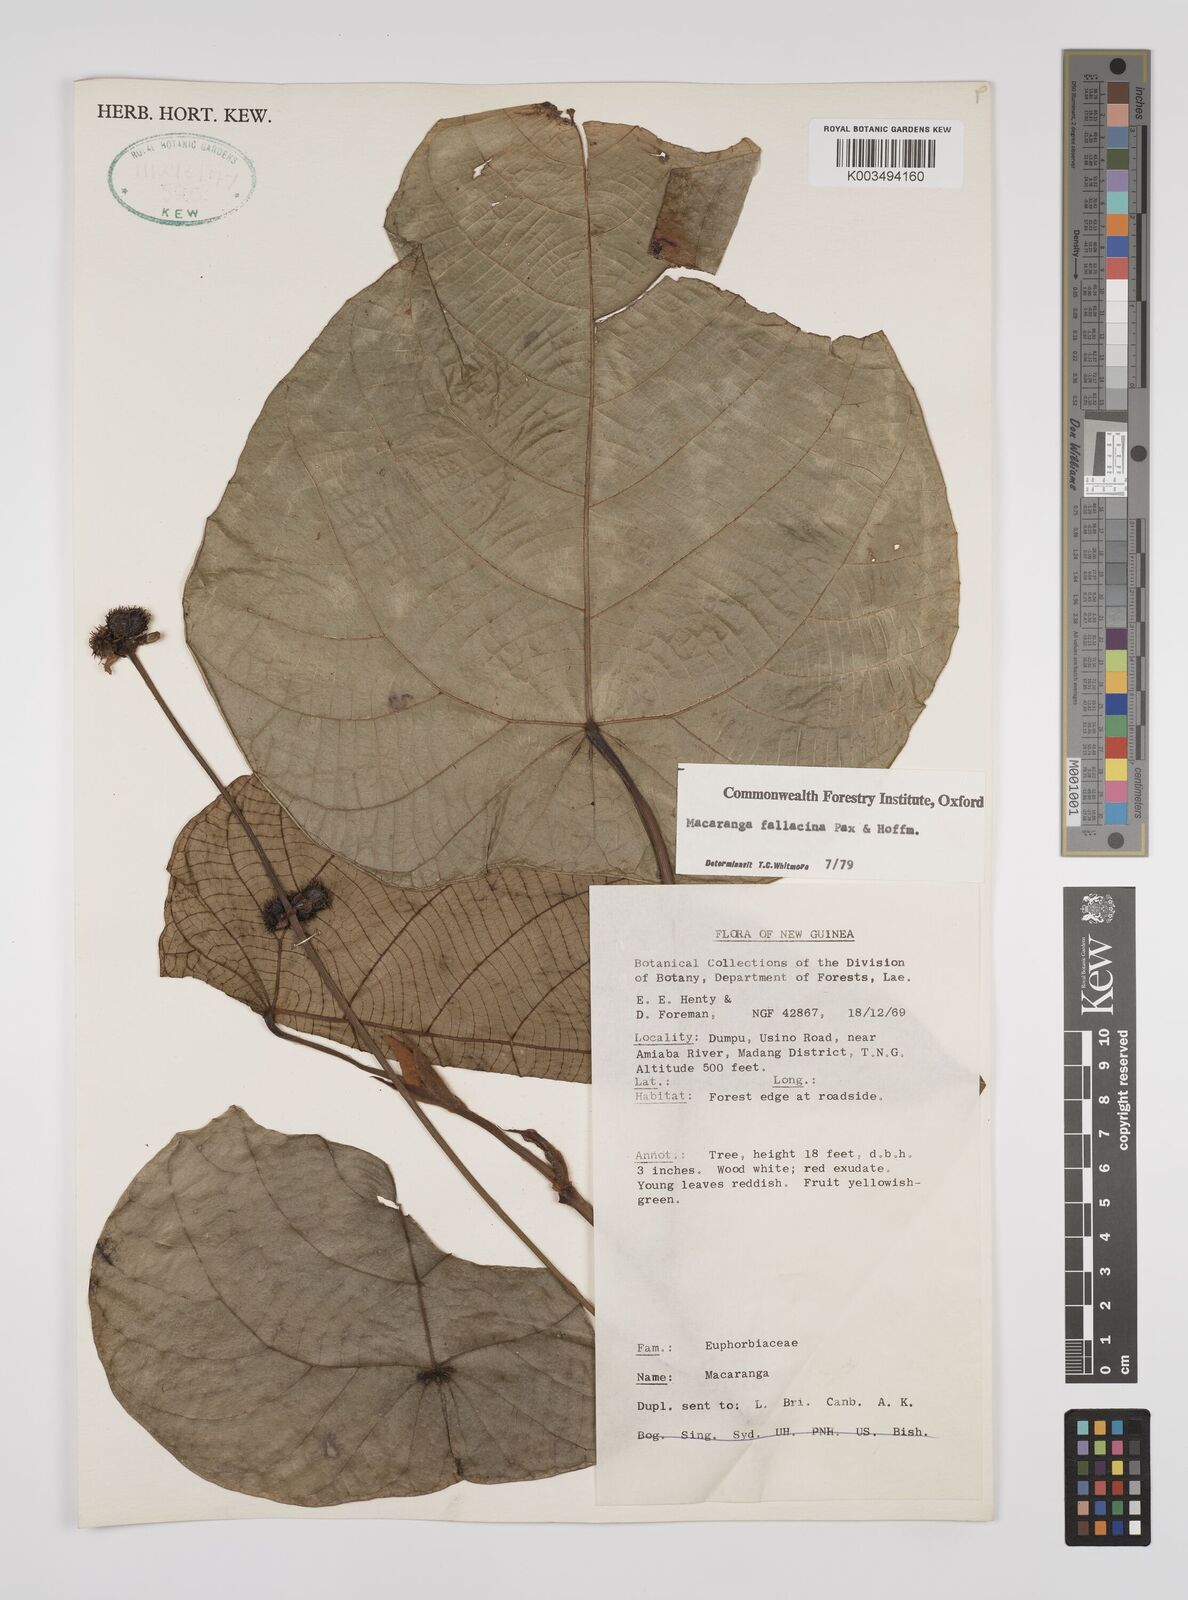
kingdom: Plantae
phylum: Tracheophyta
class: Magnoliopsida
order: Malpighiales
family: Euphorbiaceae
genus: Macaranga
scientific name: Macaranga fallacina
